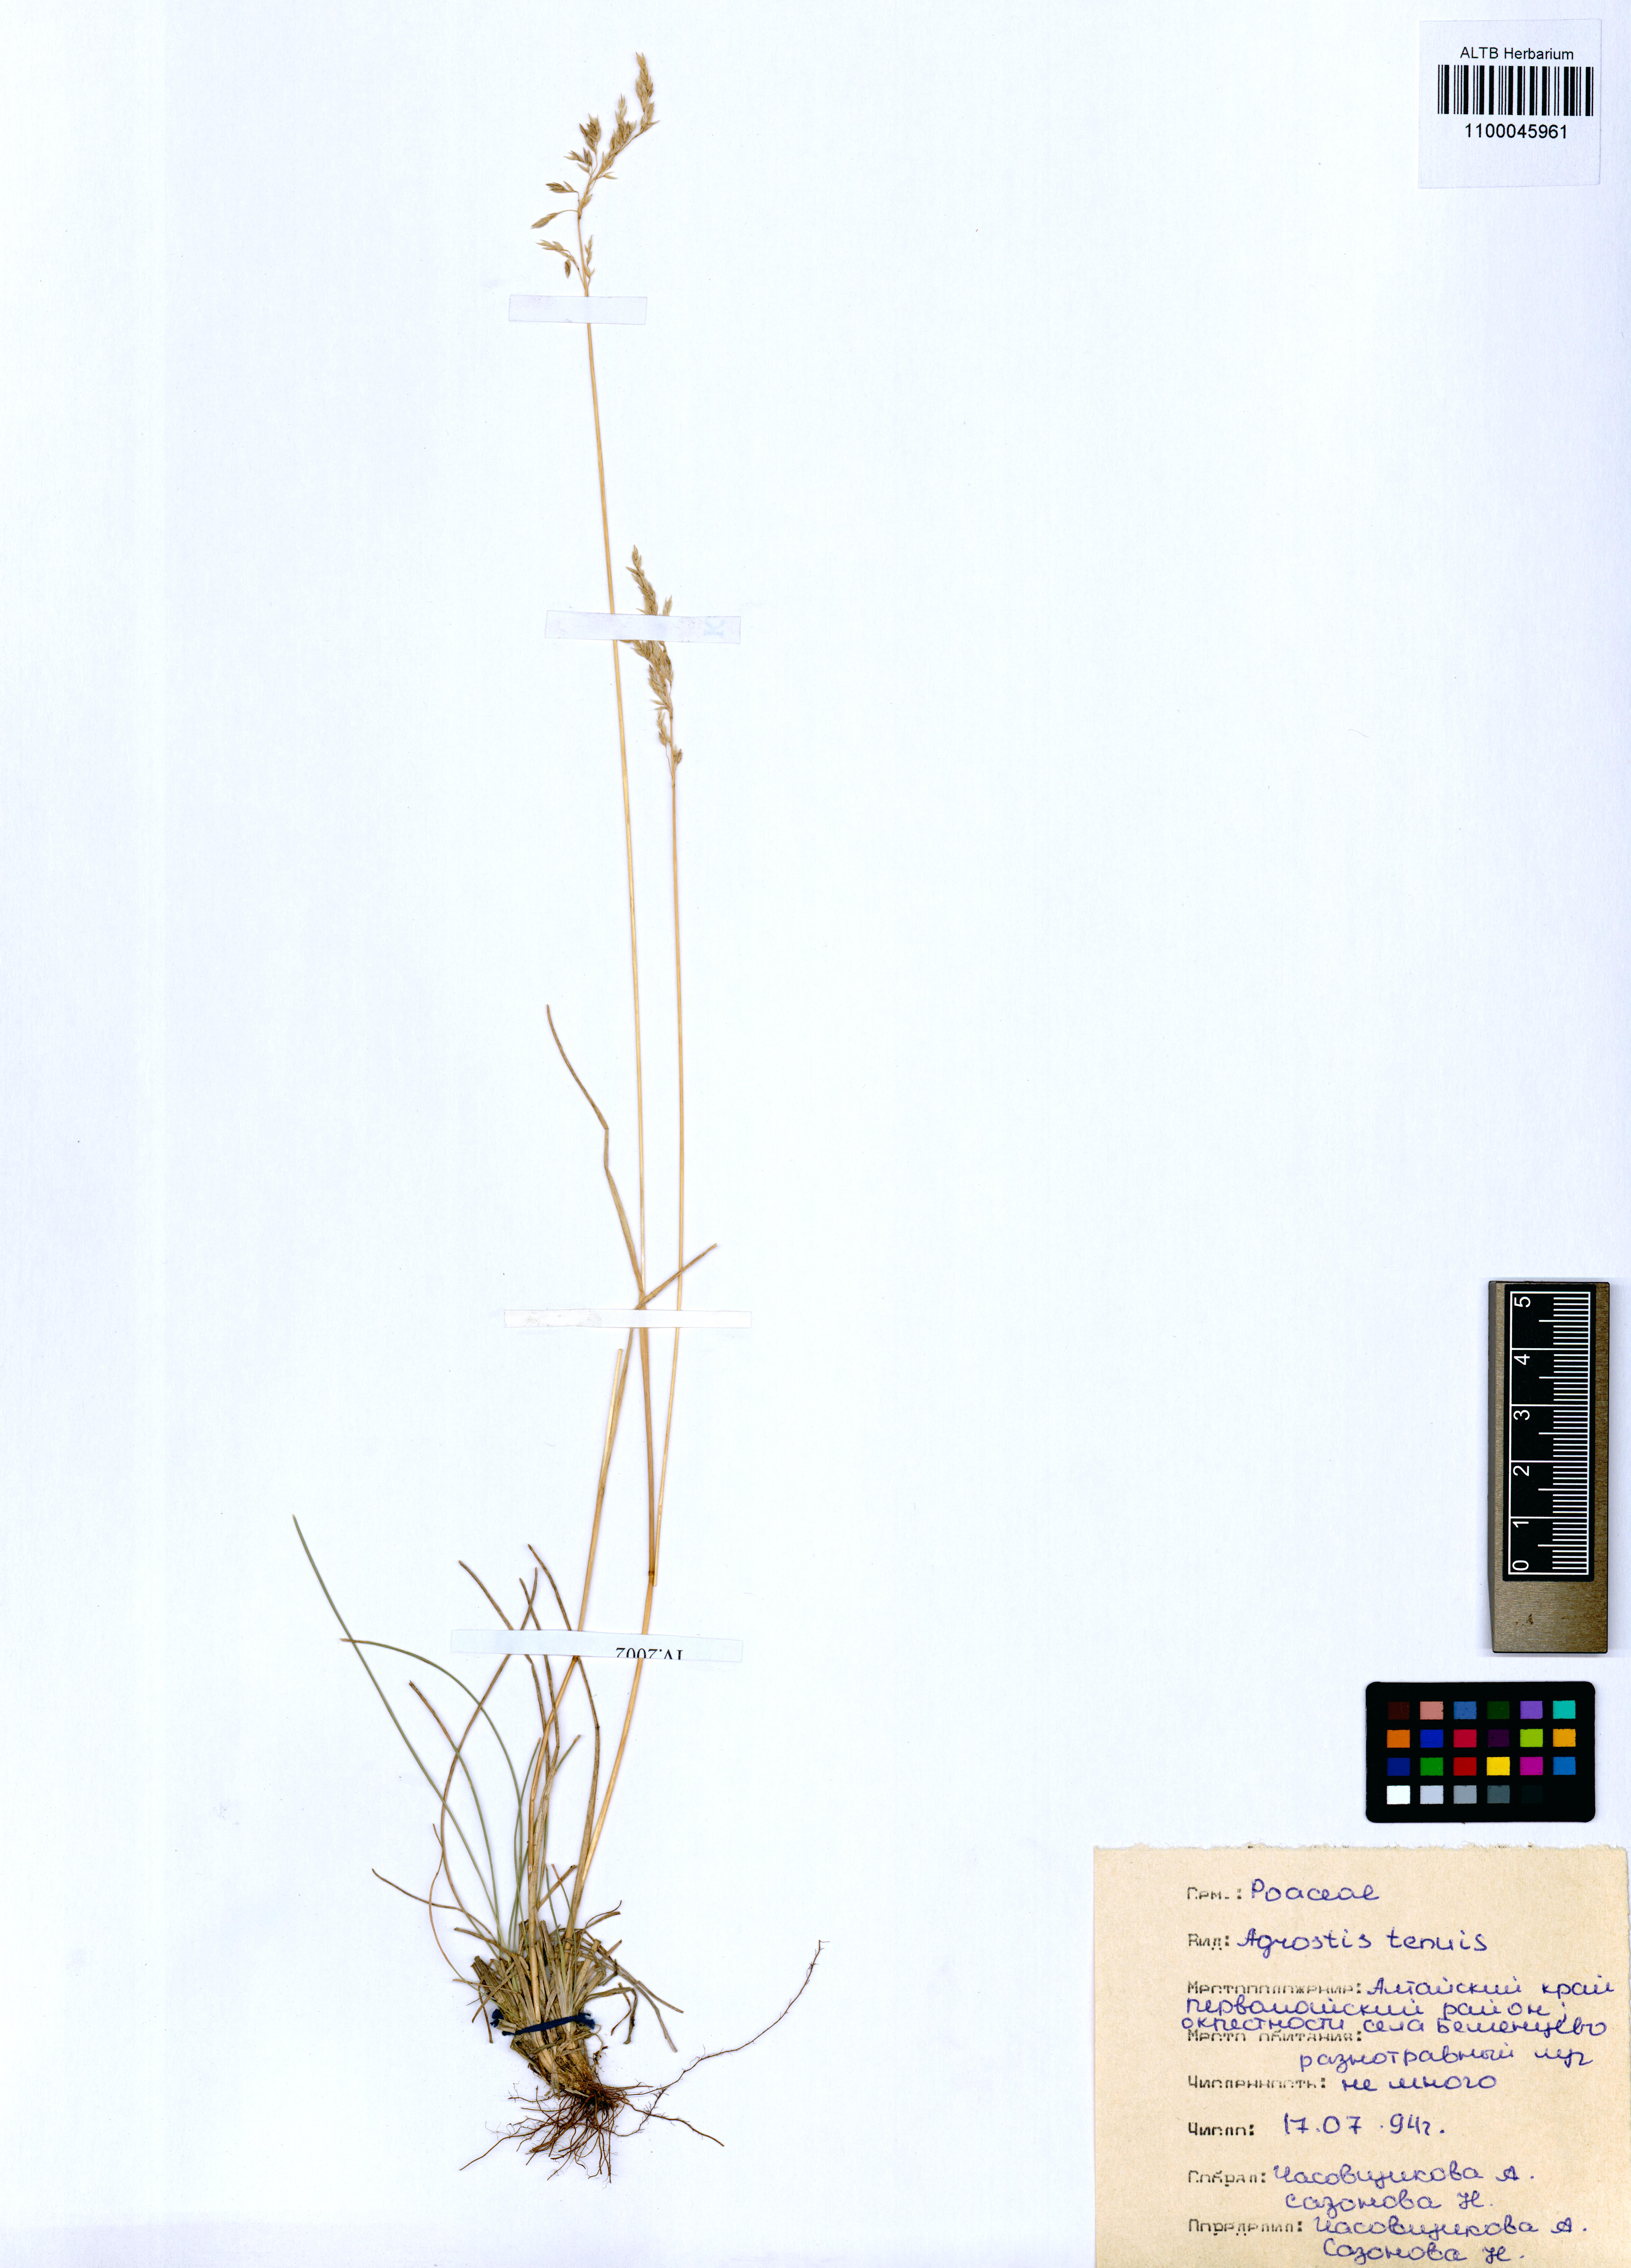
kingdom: Plantae
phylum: Tracheophyta
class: Liliopsida
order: Poales
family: Poaceae
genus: Agrostis
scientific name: Agrostis capillaris
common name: Colonial bentgrass
